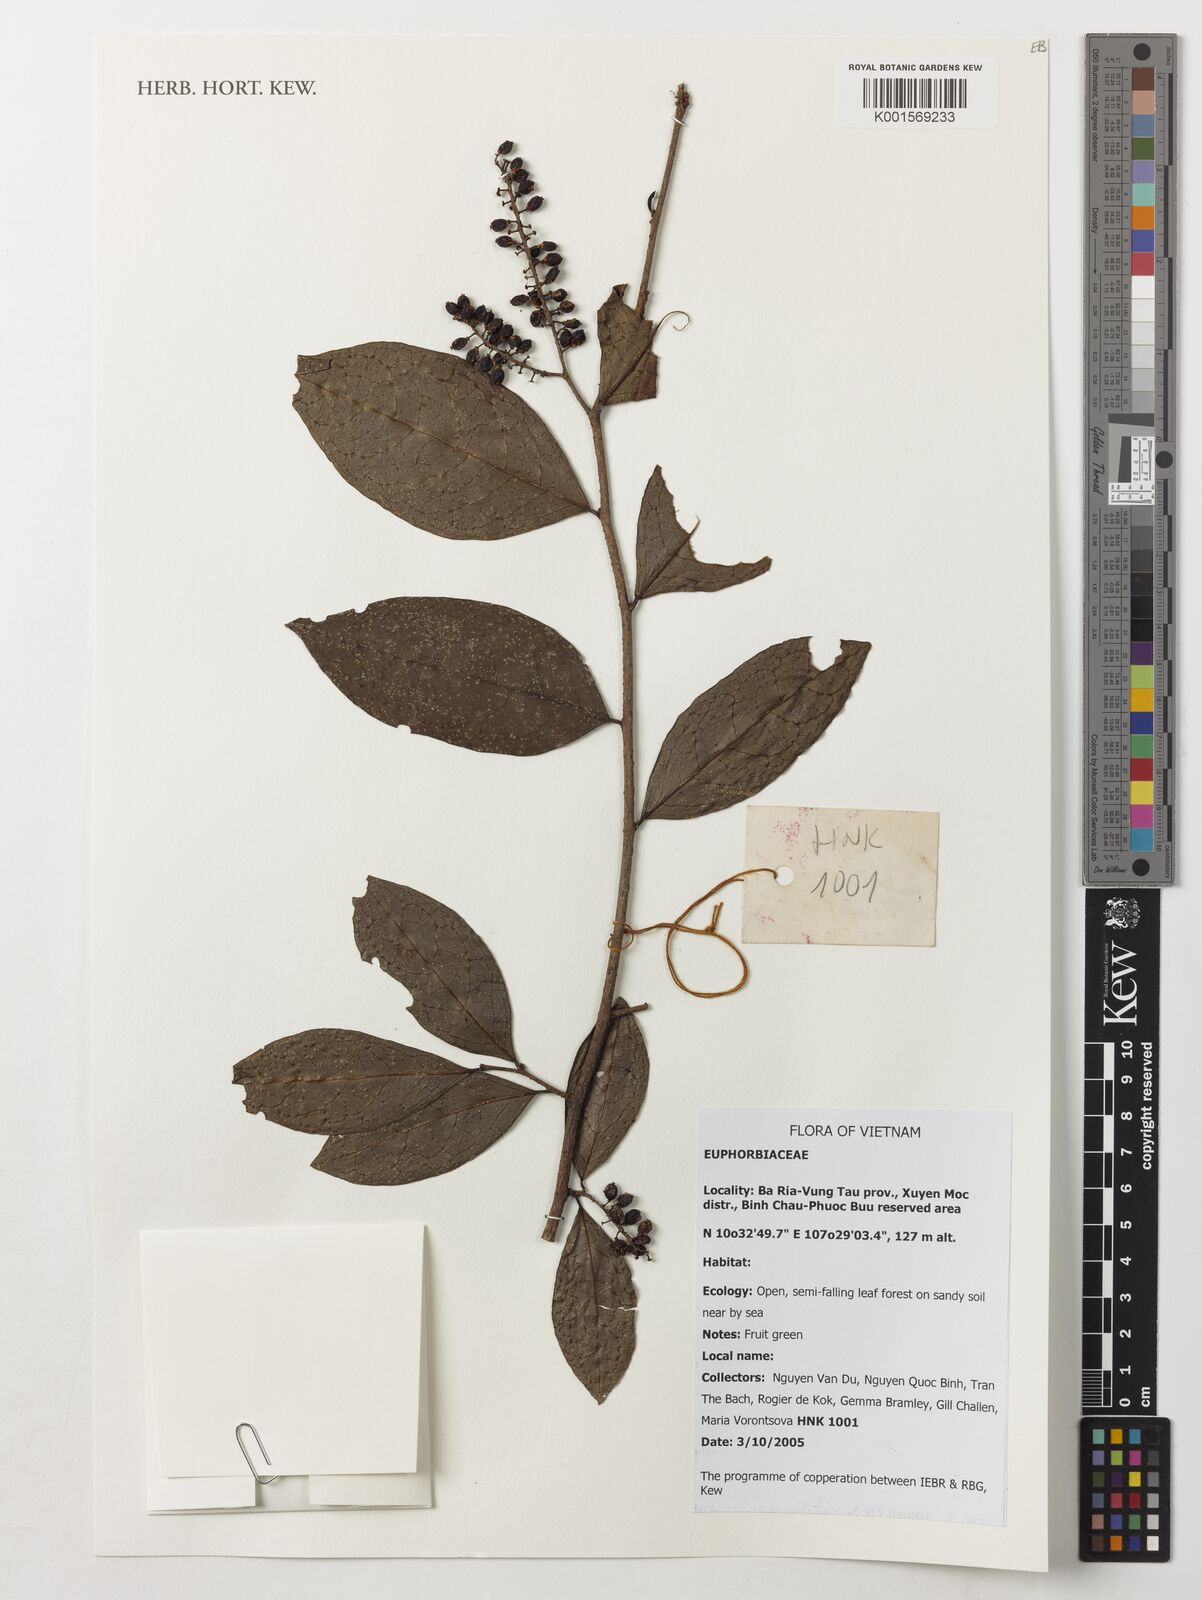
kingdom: Plantae
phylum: Tracheophyta
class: Magnoliopsida
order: Malpighiales
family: Euphorbiaceae
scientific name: Euphorbiaceae
